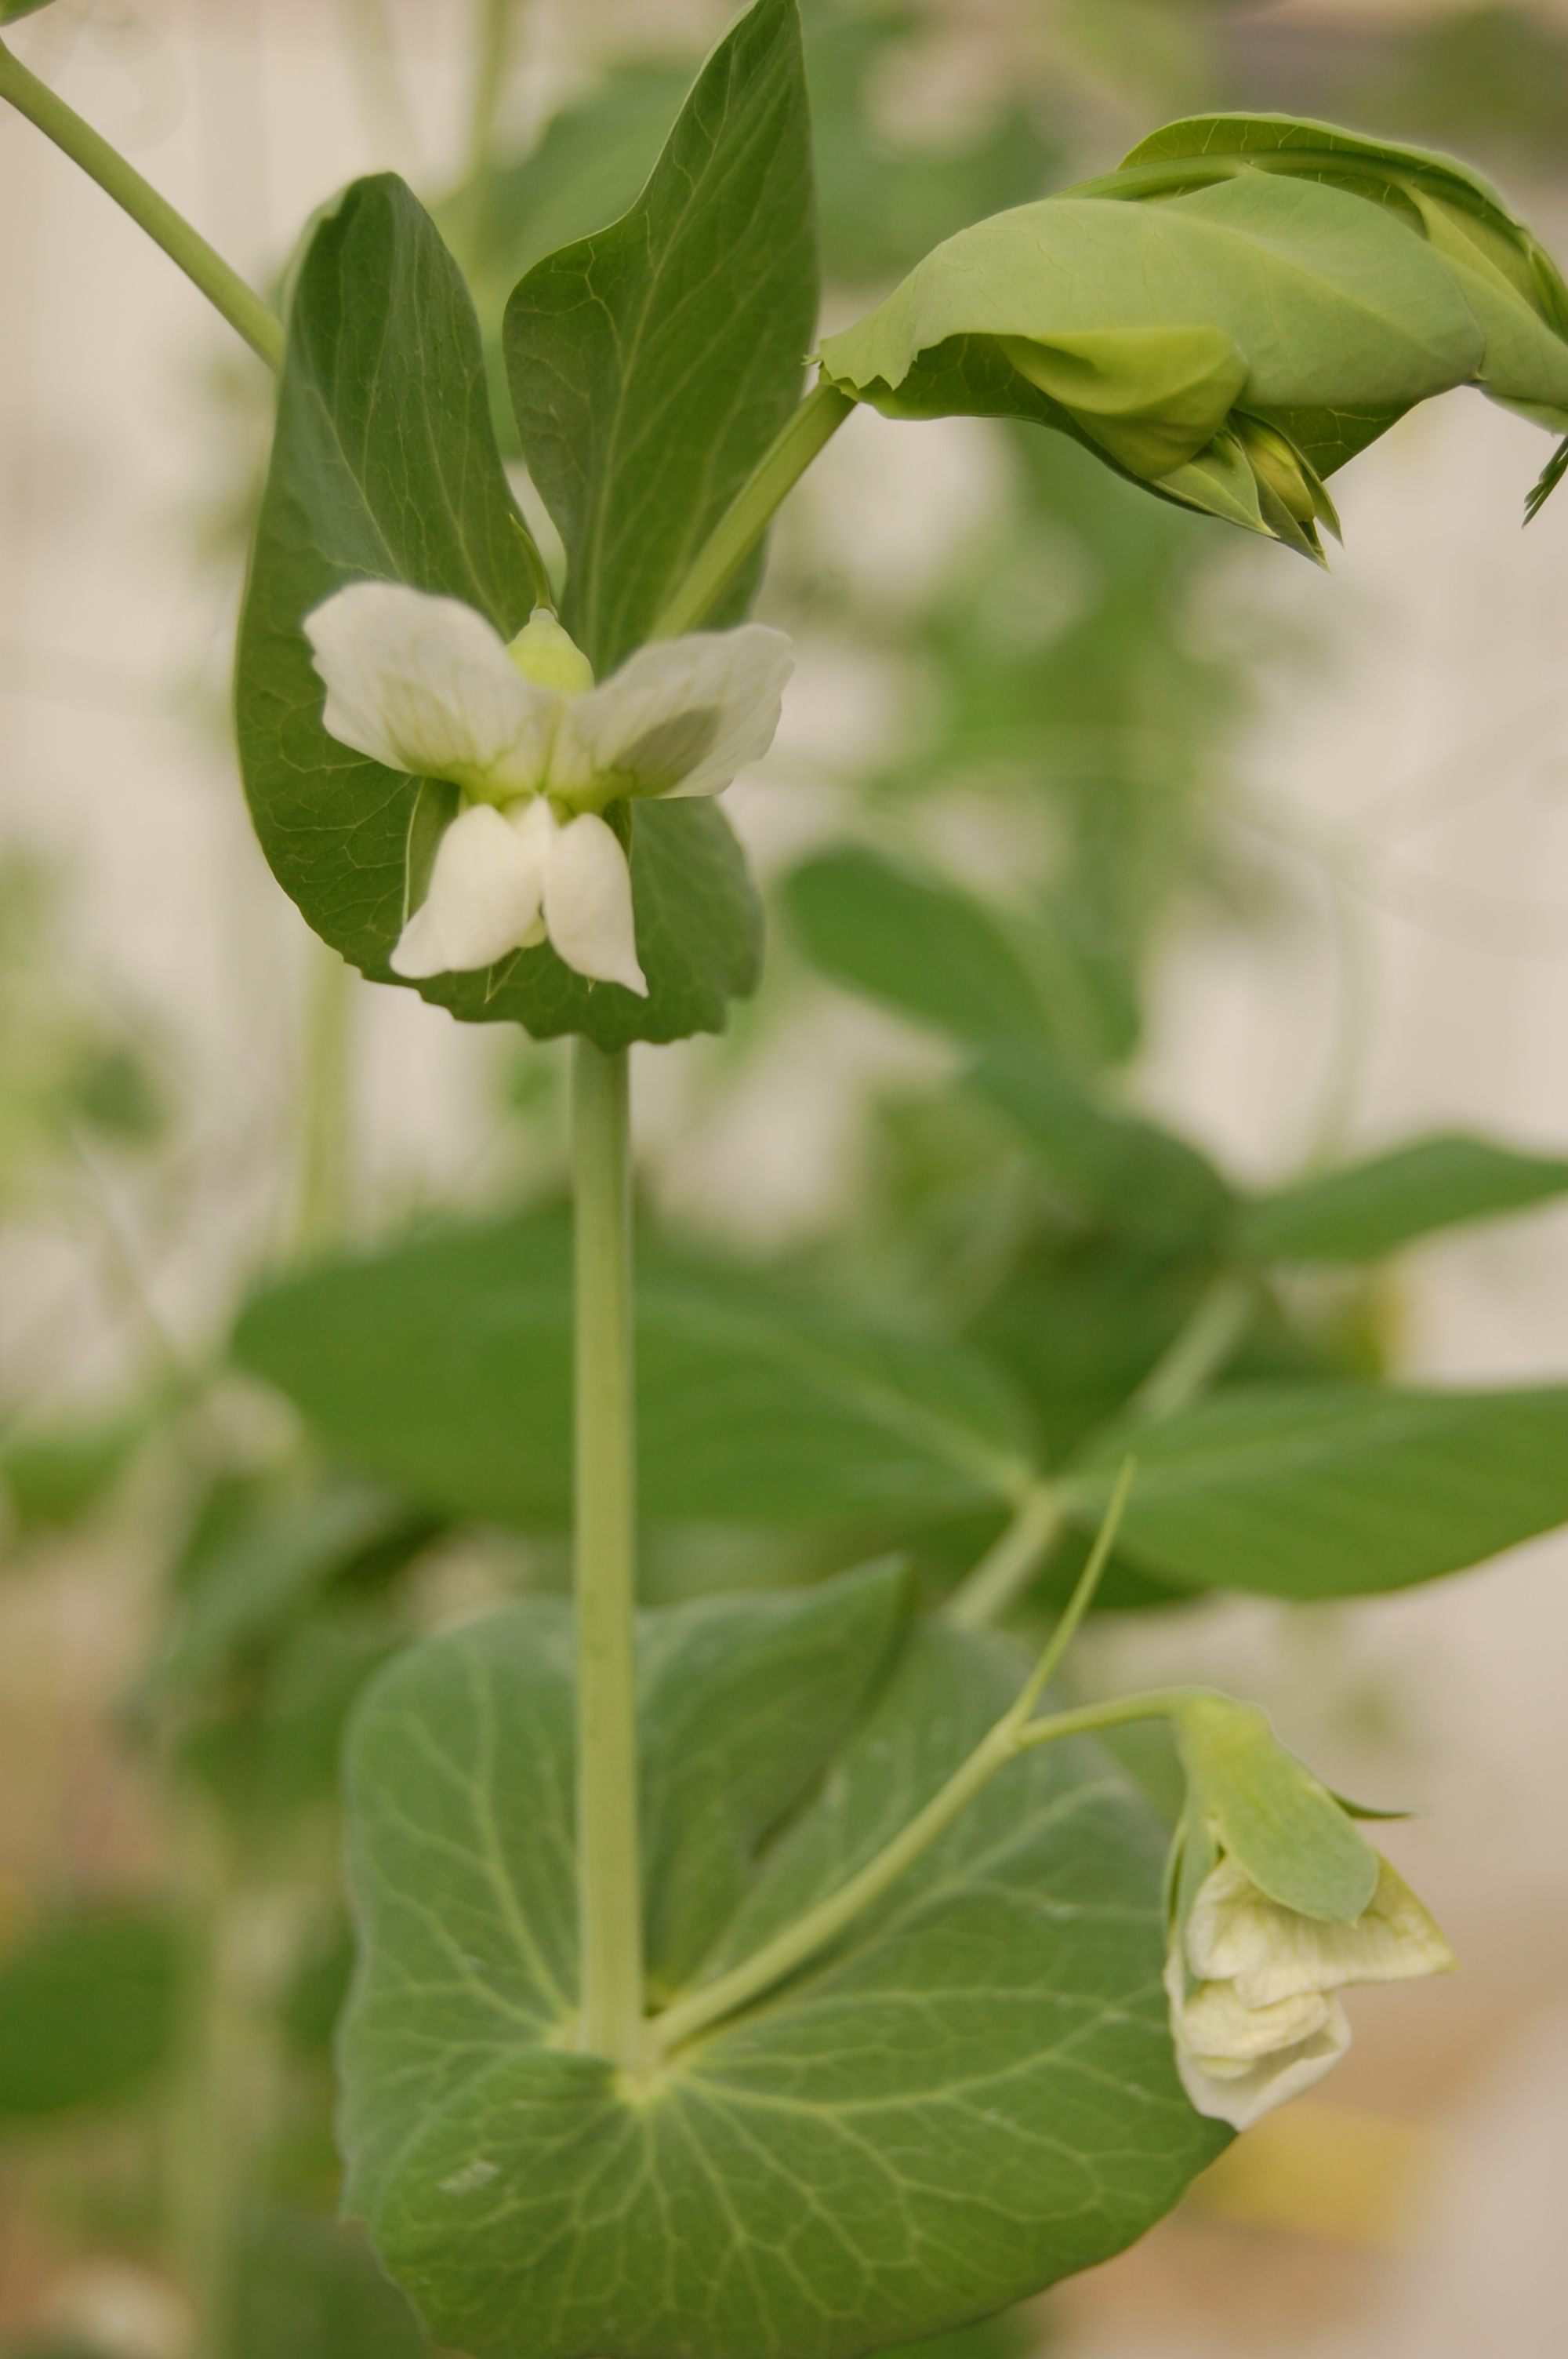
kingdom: Plantae
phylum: Tracheophyta
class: Magnoliopsida
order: Fabales
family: Fabaceae
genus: Lathyrus
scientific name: Lathyrus oleraceus
